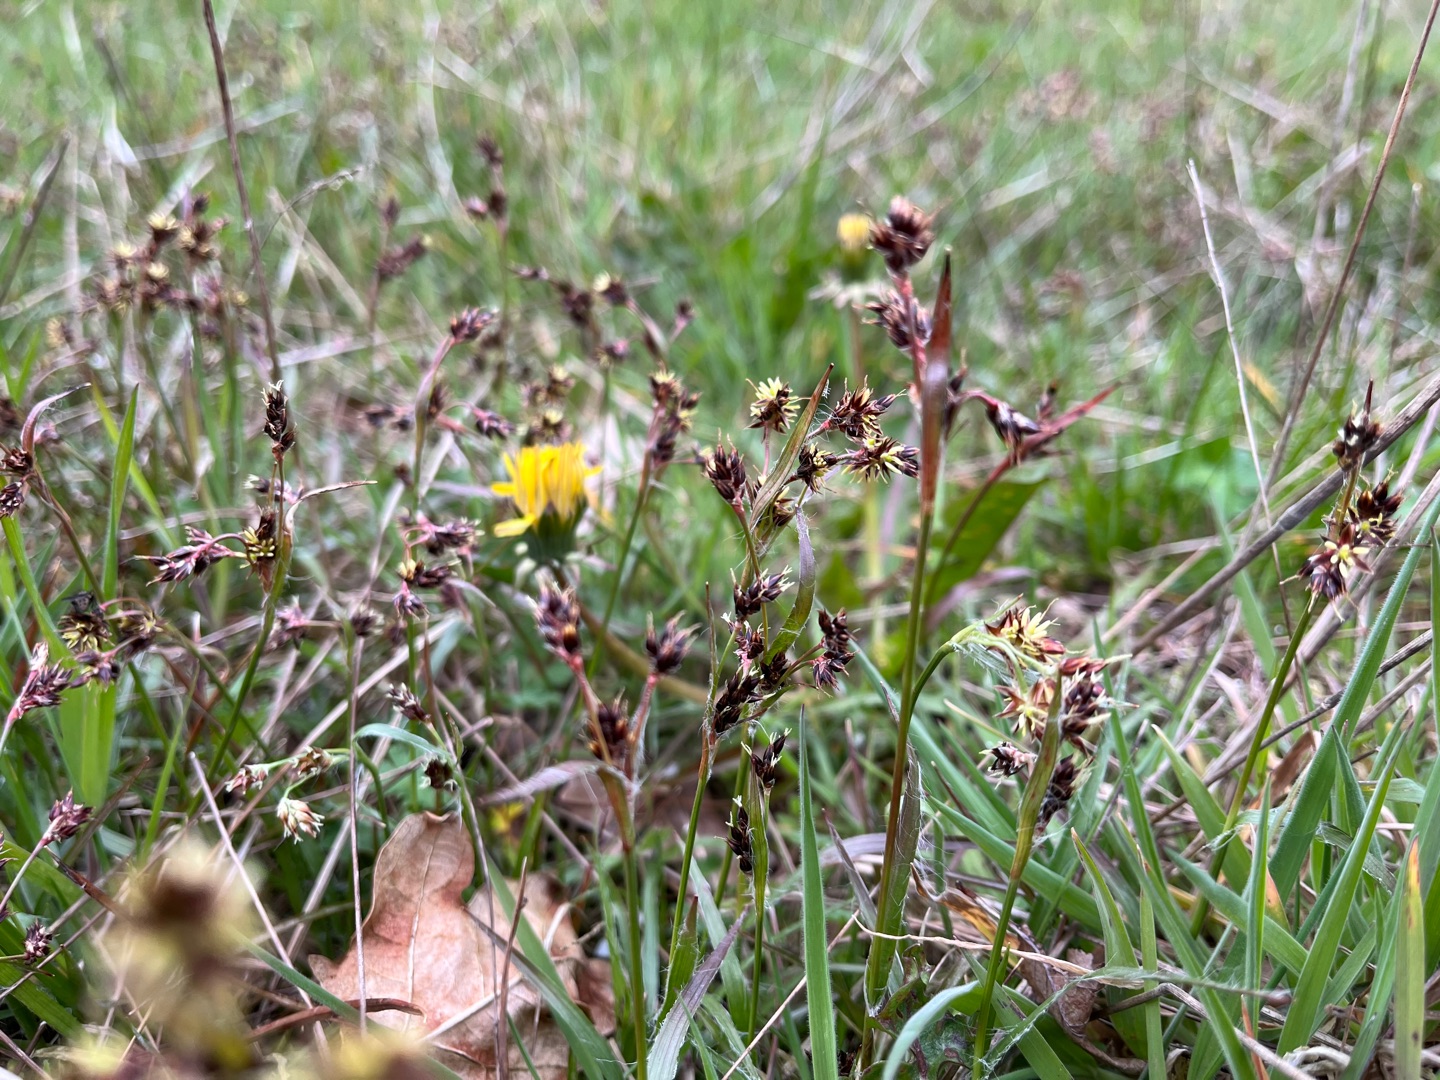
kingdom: Plantae
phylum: Tracheophyta
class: Liliopsida
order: Poales
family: Juncaceae
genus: Luzula
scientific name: Luzula campestris
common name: Mark-frytle
